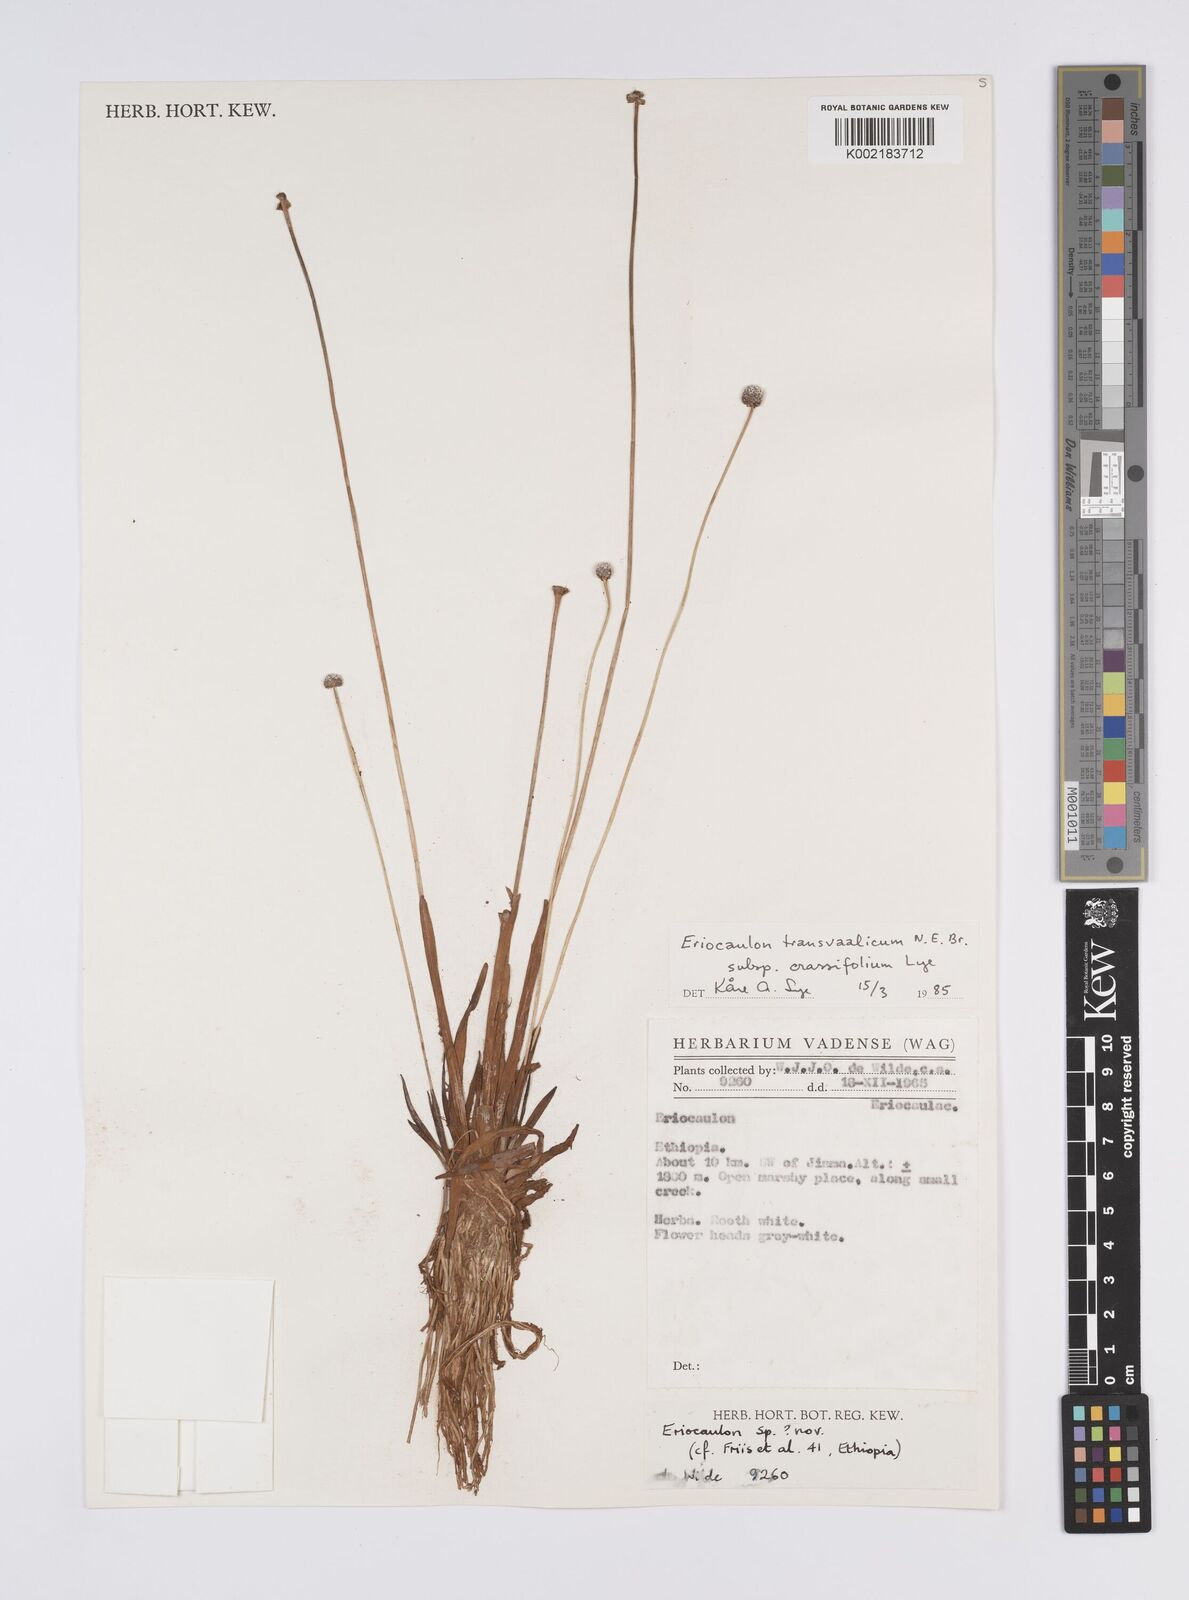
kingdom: Plantae
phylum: Tracheophyta
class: Liliopsida
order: Poales
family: Eriocaulaceae
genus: Eriocaulon
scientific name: Eriocaulon crassiusculum
